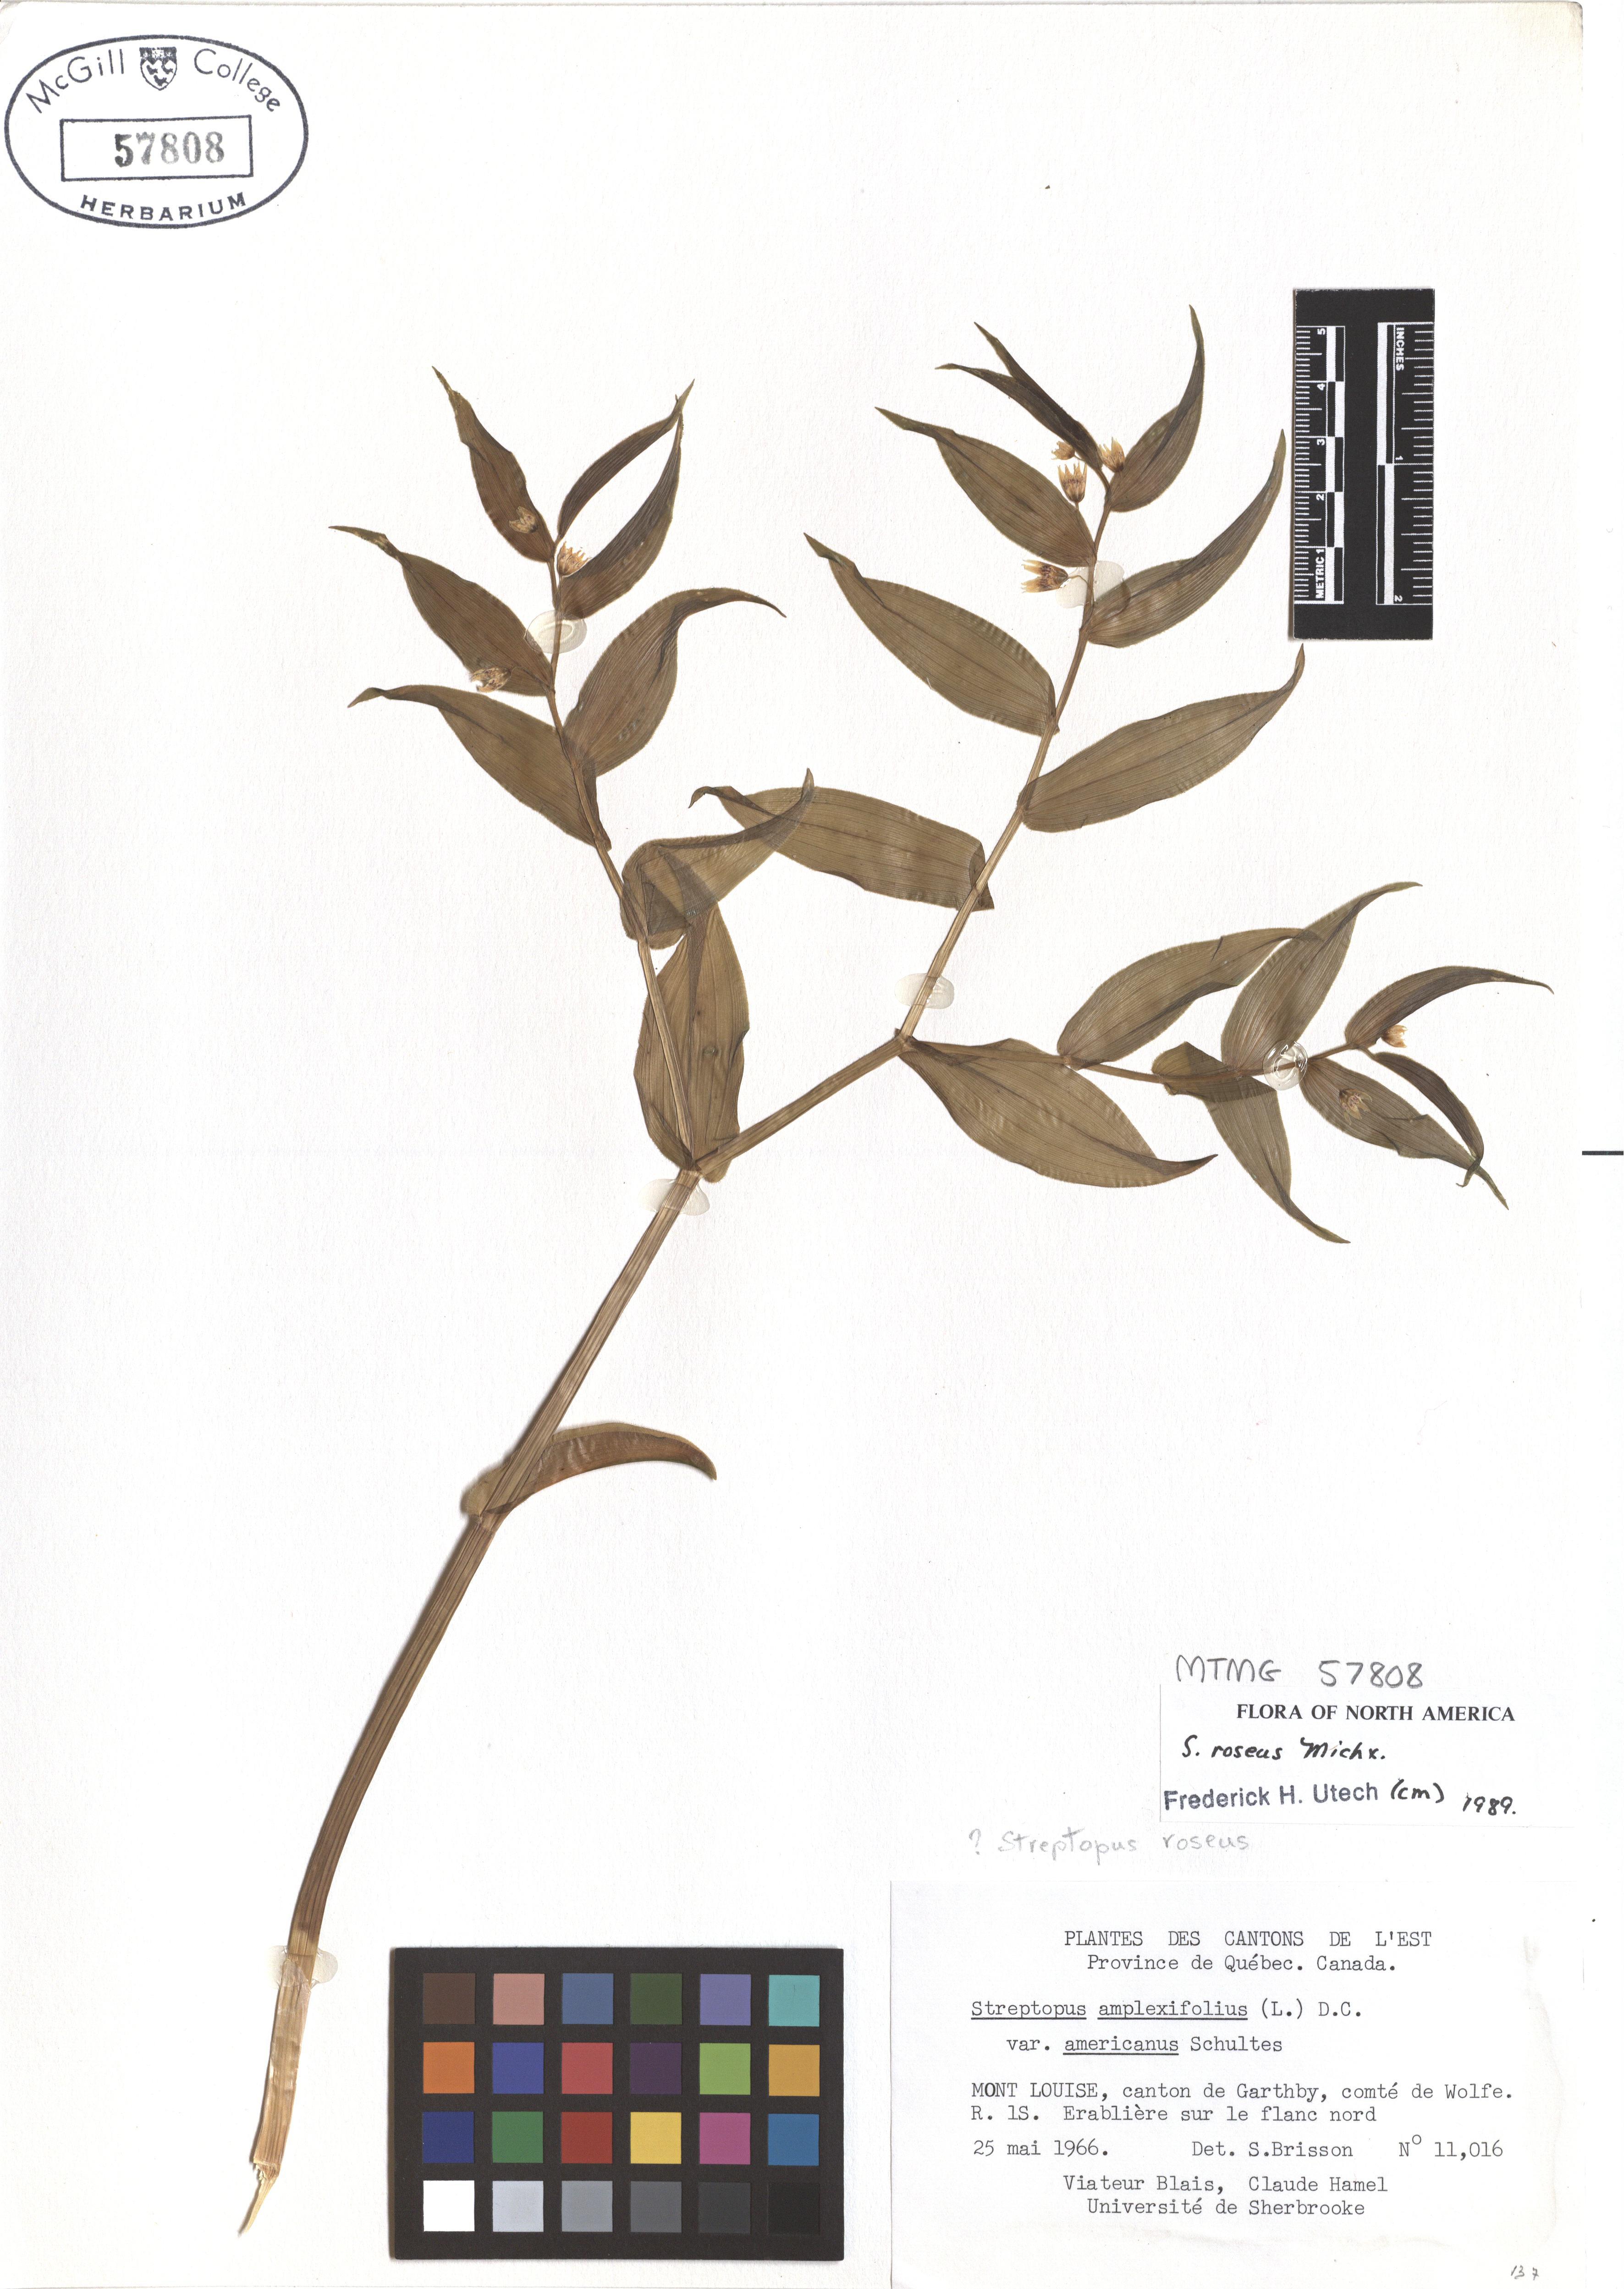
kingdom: Plantae
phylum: Tracheophyta
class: Liliopsida
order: Liliales
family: Liliaceae
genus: Streptopus
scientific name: Streptopus lanceolatus
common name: Rose mandarin
